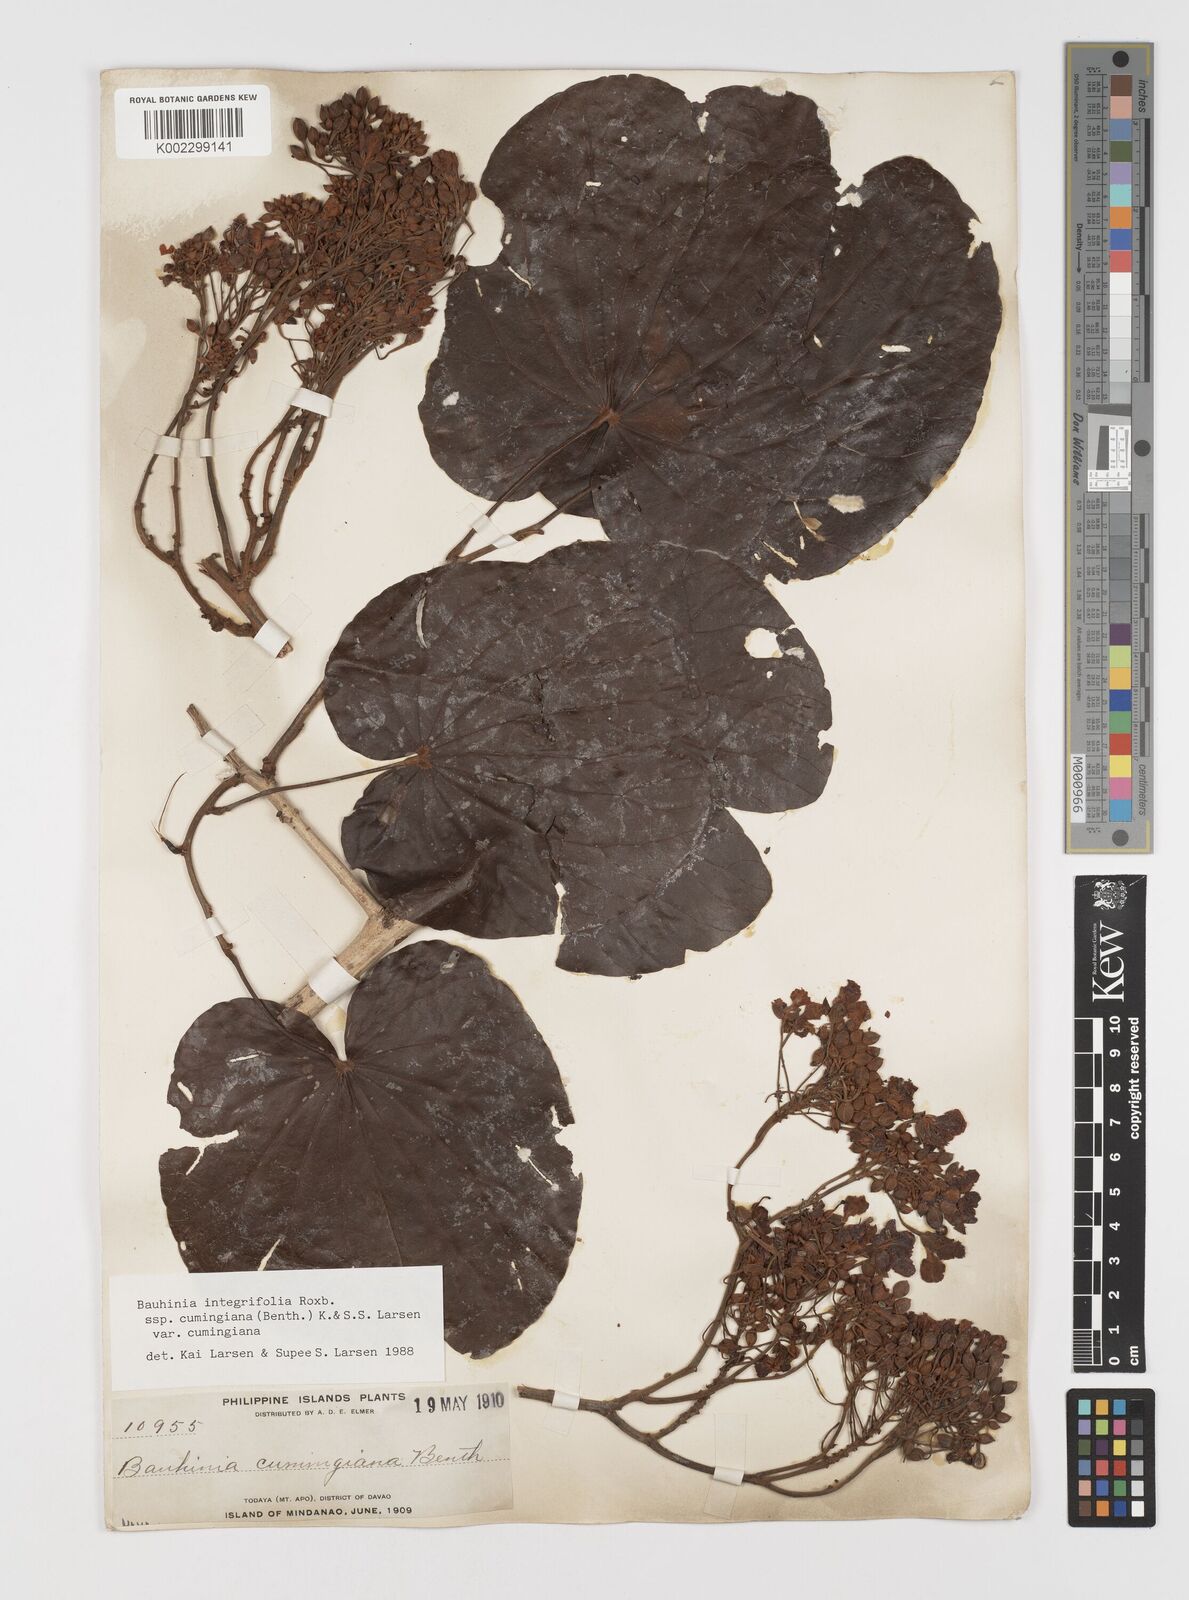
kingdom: Plantae
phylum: Tracheophyta
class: Magnoliopsida
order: Fabales
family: Fabaceae
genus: Phanera
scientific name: Phanera integrifolia
